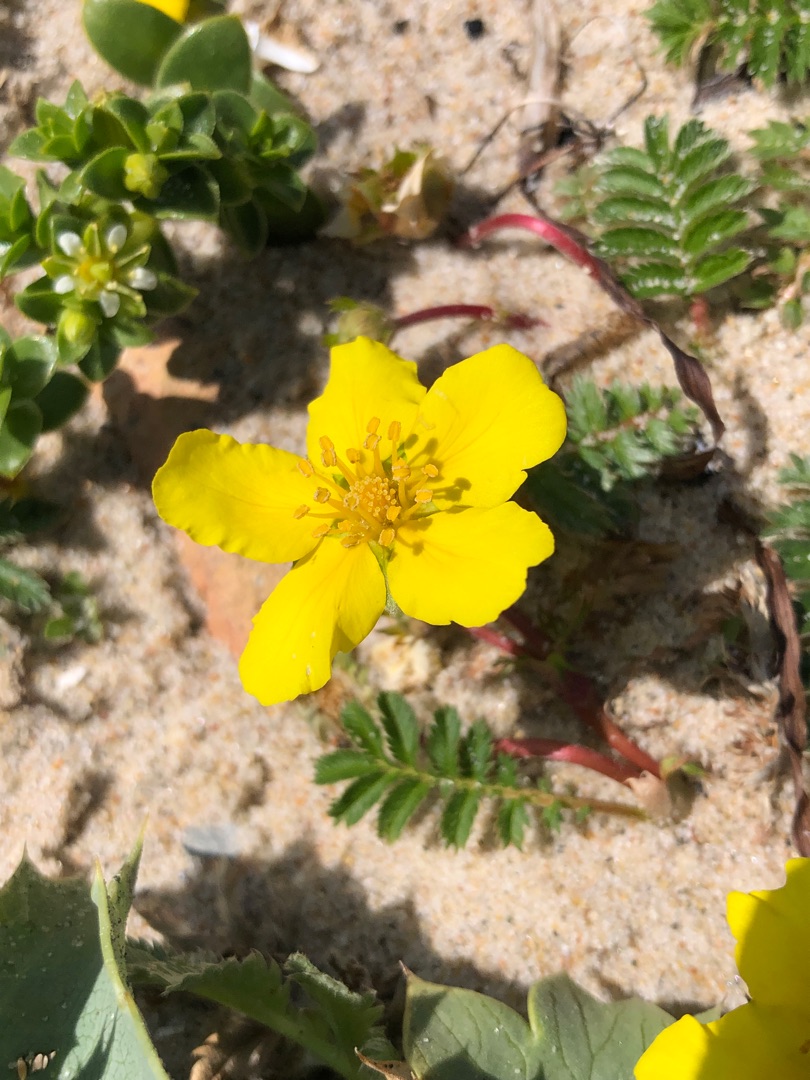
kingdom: Plantae
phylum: Tracheophyta
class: Magnoliopsida
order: Rosales
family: Rosaceae
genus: Argentina
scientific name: Argentina anserina
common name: Gåsepotentil
